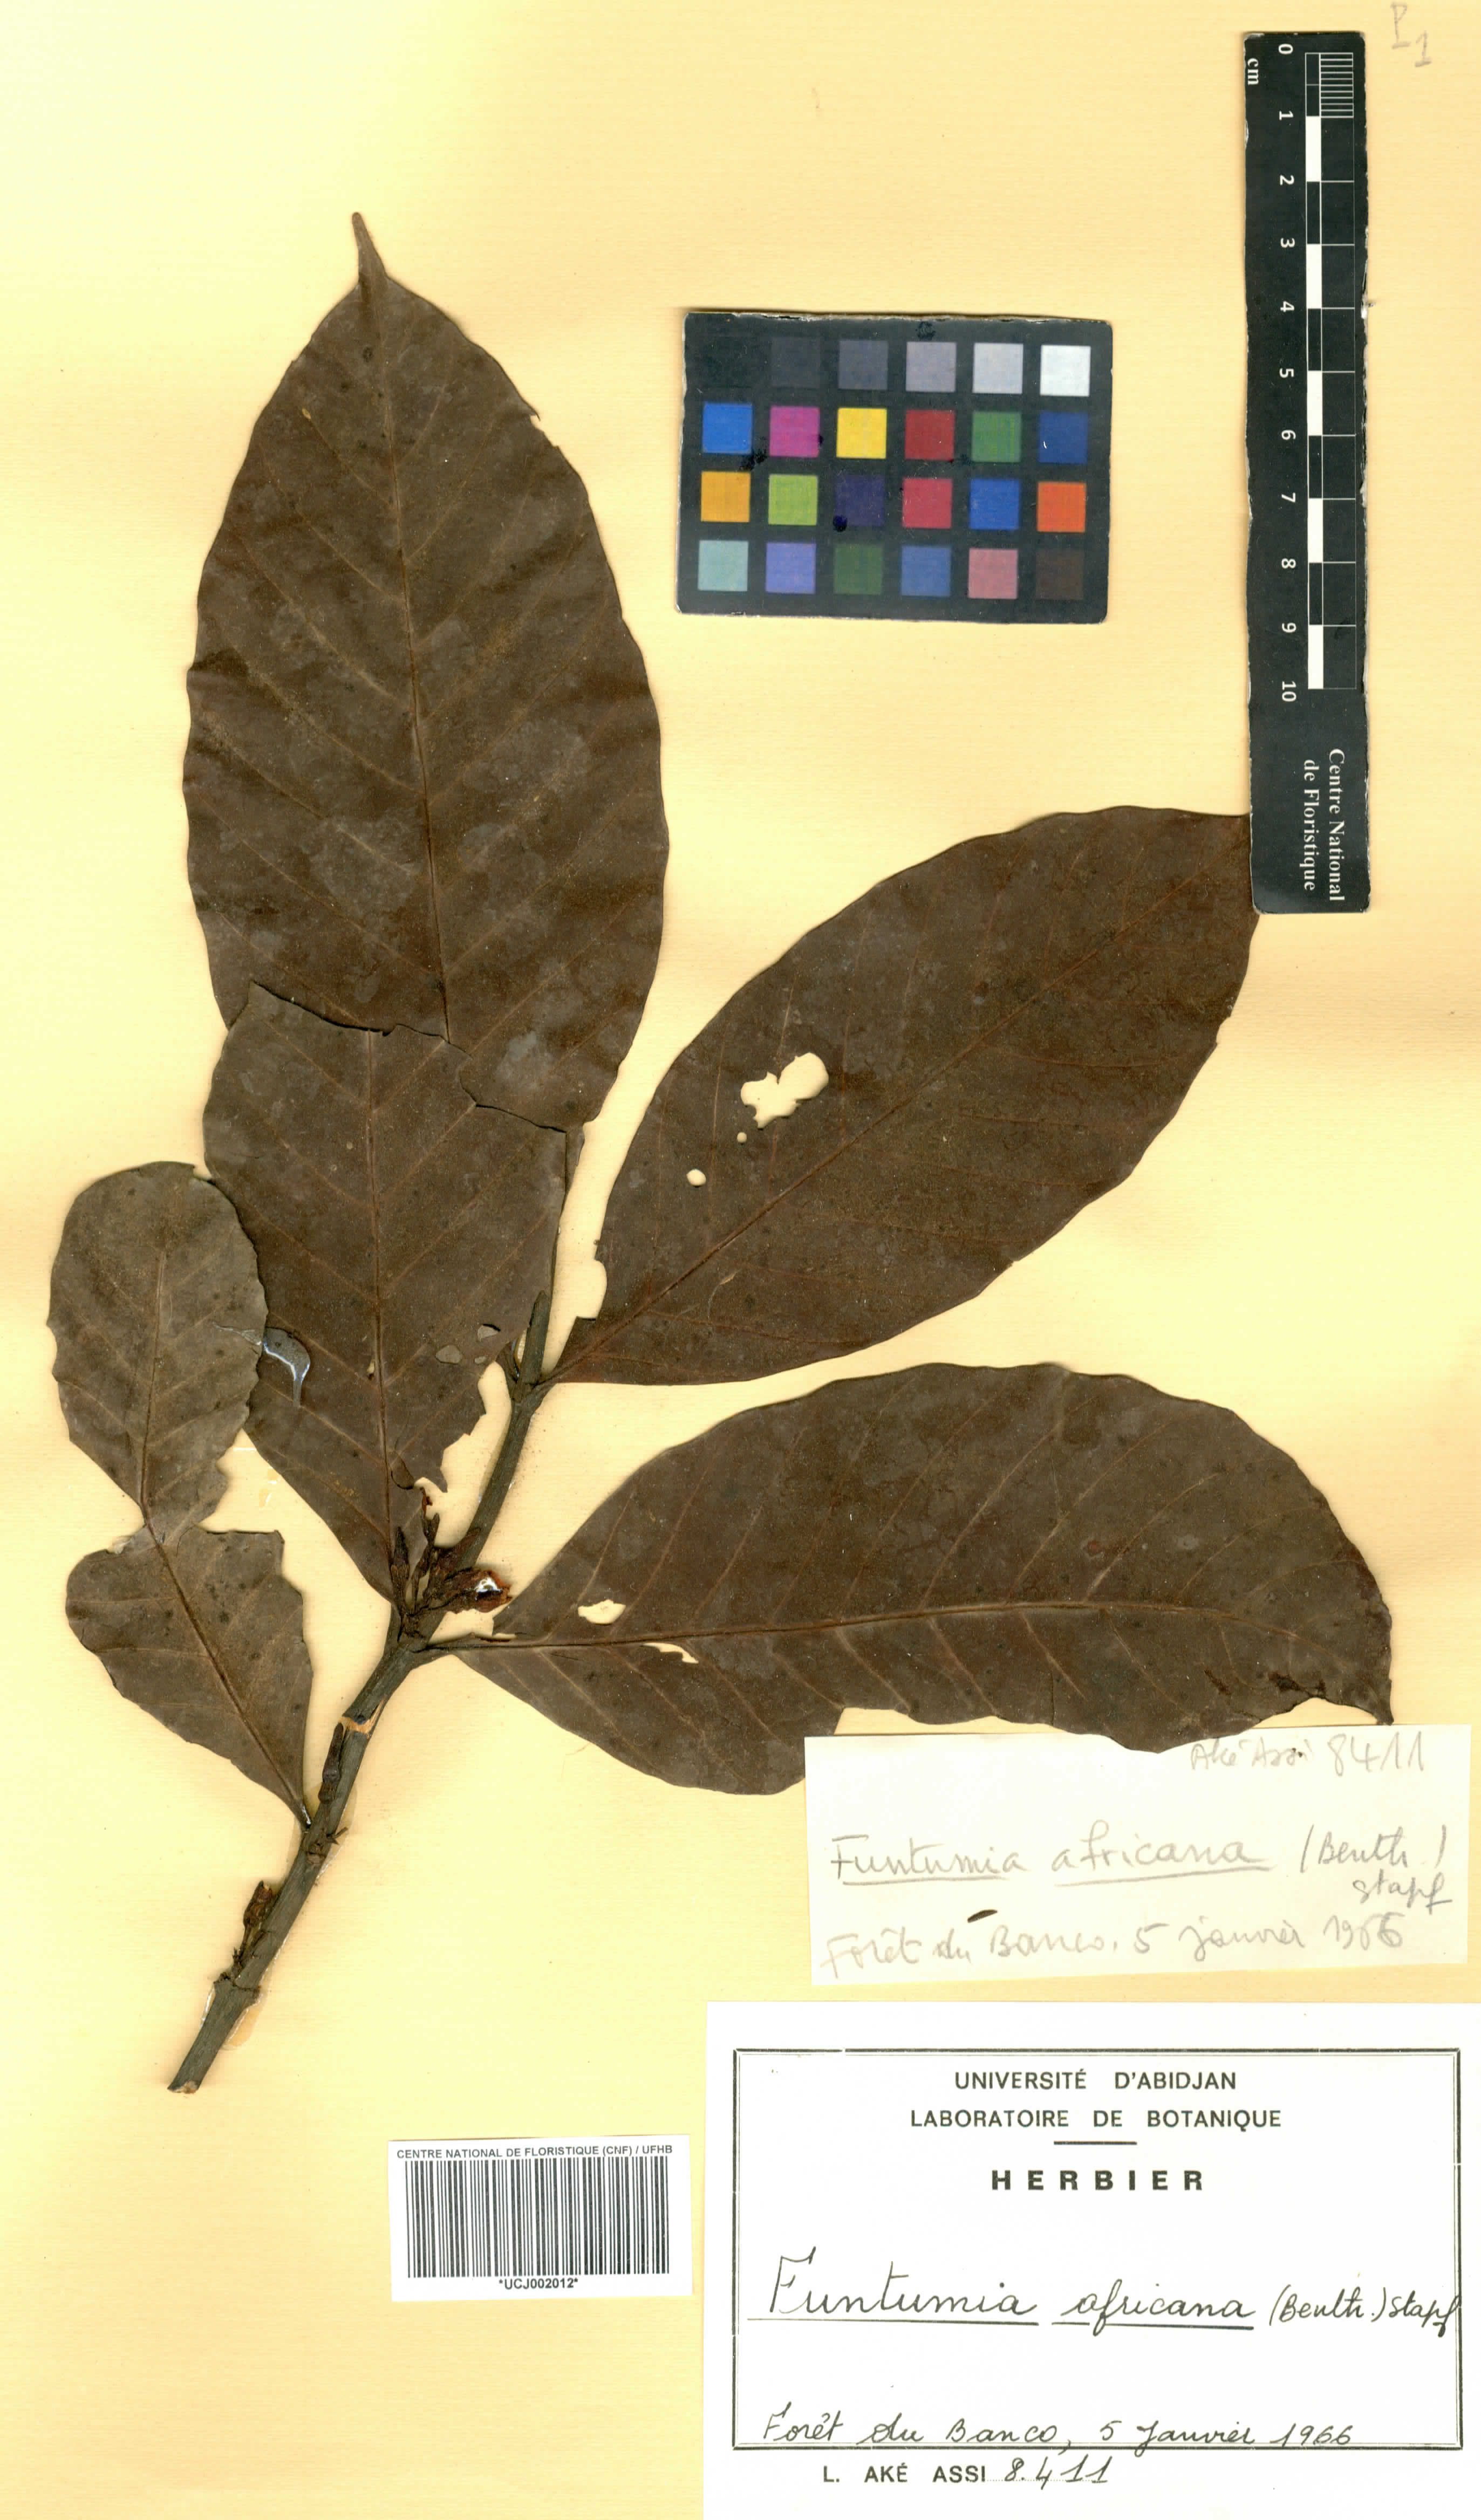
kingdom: Plantae
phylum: Tracheophyta
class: Magnoliopsida
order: Gentianales
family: Apocynaceae
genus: Funtumia
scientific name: Funtumia africana
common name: Lagos-rubber
